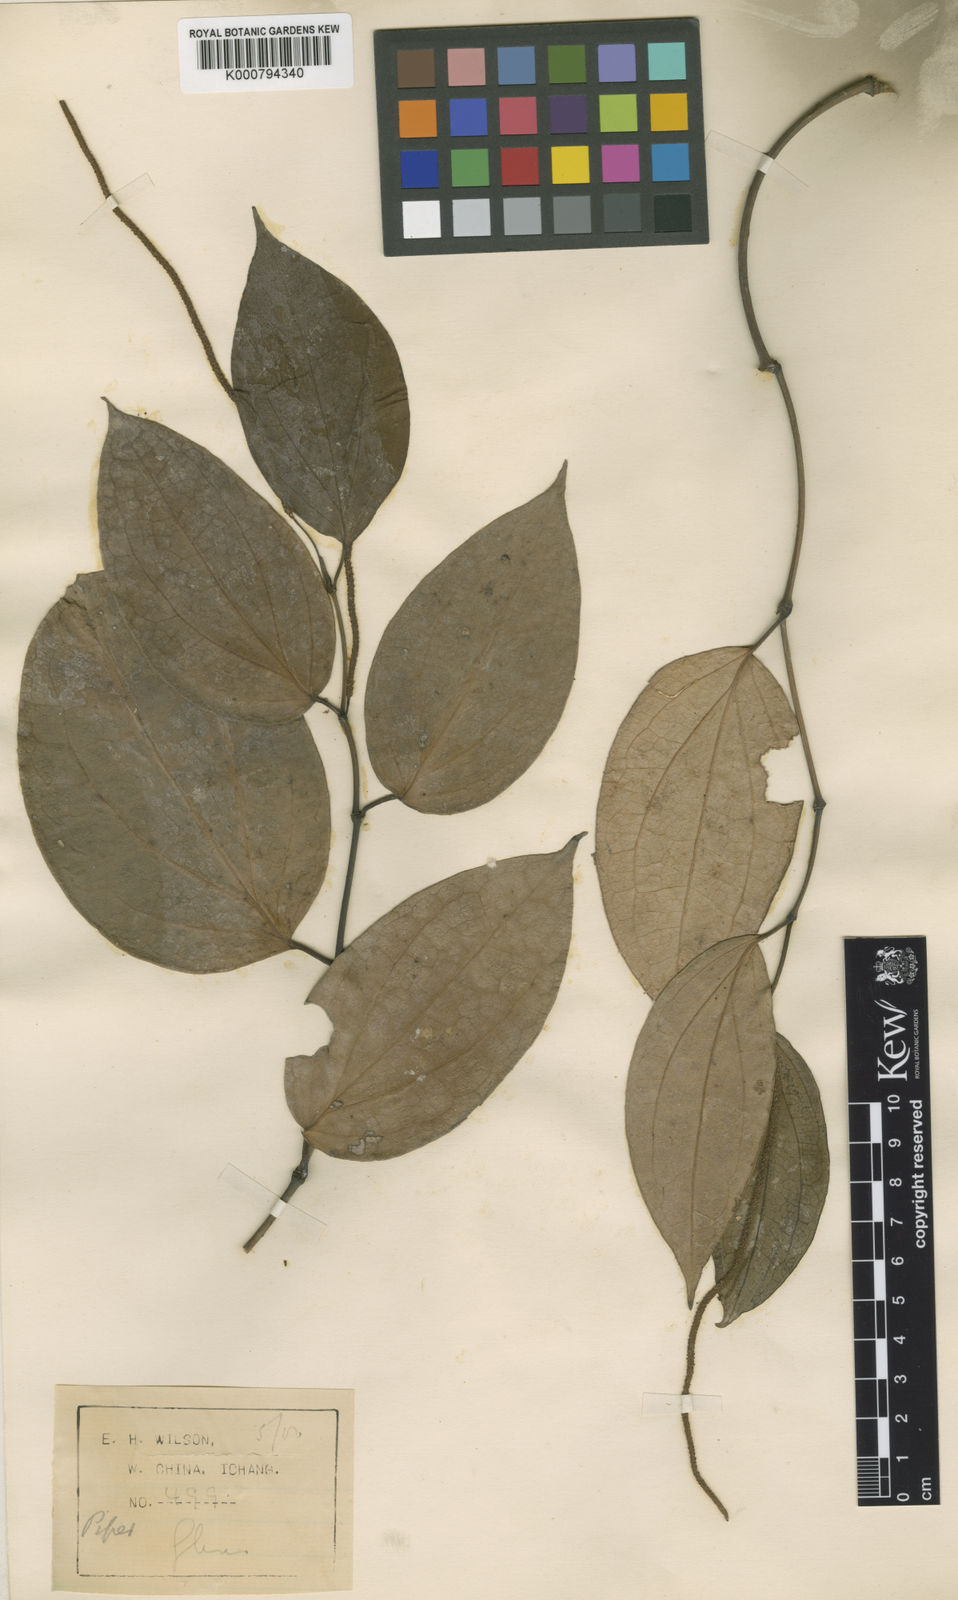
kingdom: Plantae
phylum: Tracheophyta
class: Magnoliopsida
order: Piperales
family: Piperaceae
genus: Piper
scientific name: Piper wallichii
